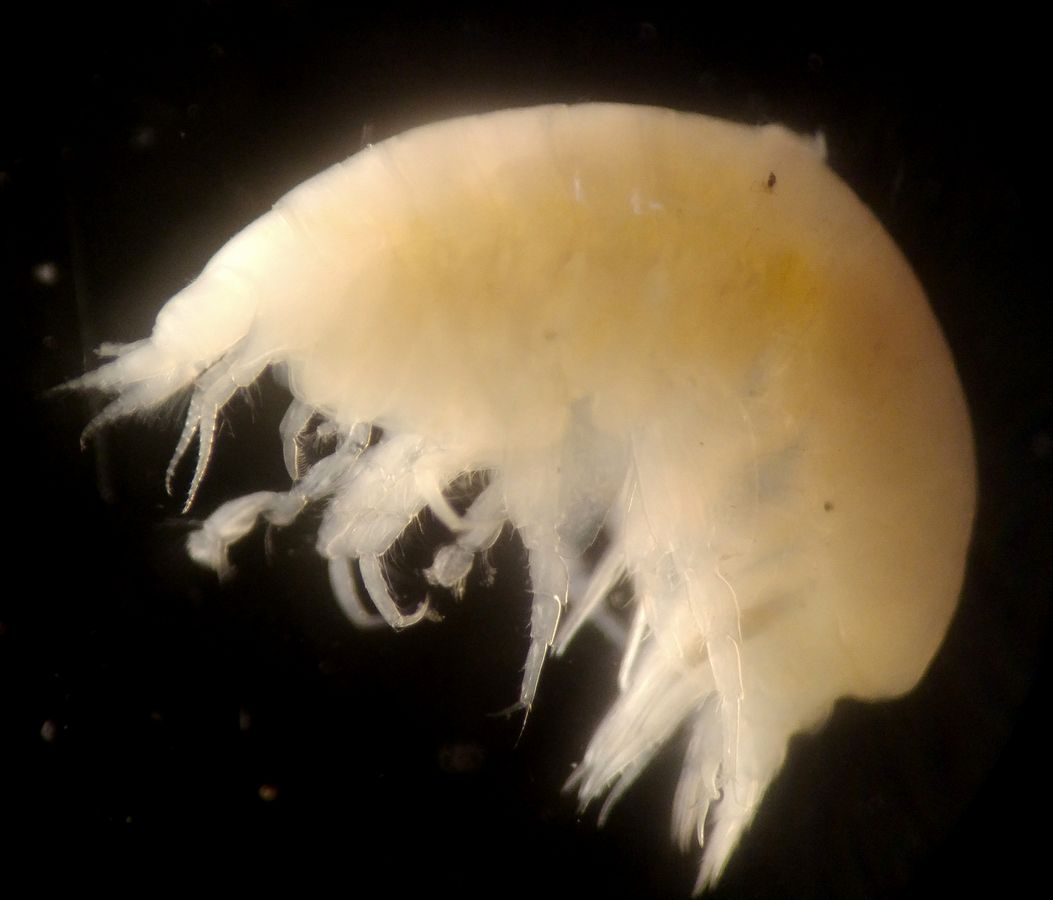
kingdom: Animalia
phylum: Arthropoda
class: Malacostraca
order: Amphipoda
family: Uristidae
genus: Centromedon
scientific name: Centromedon productus
